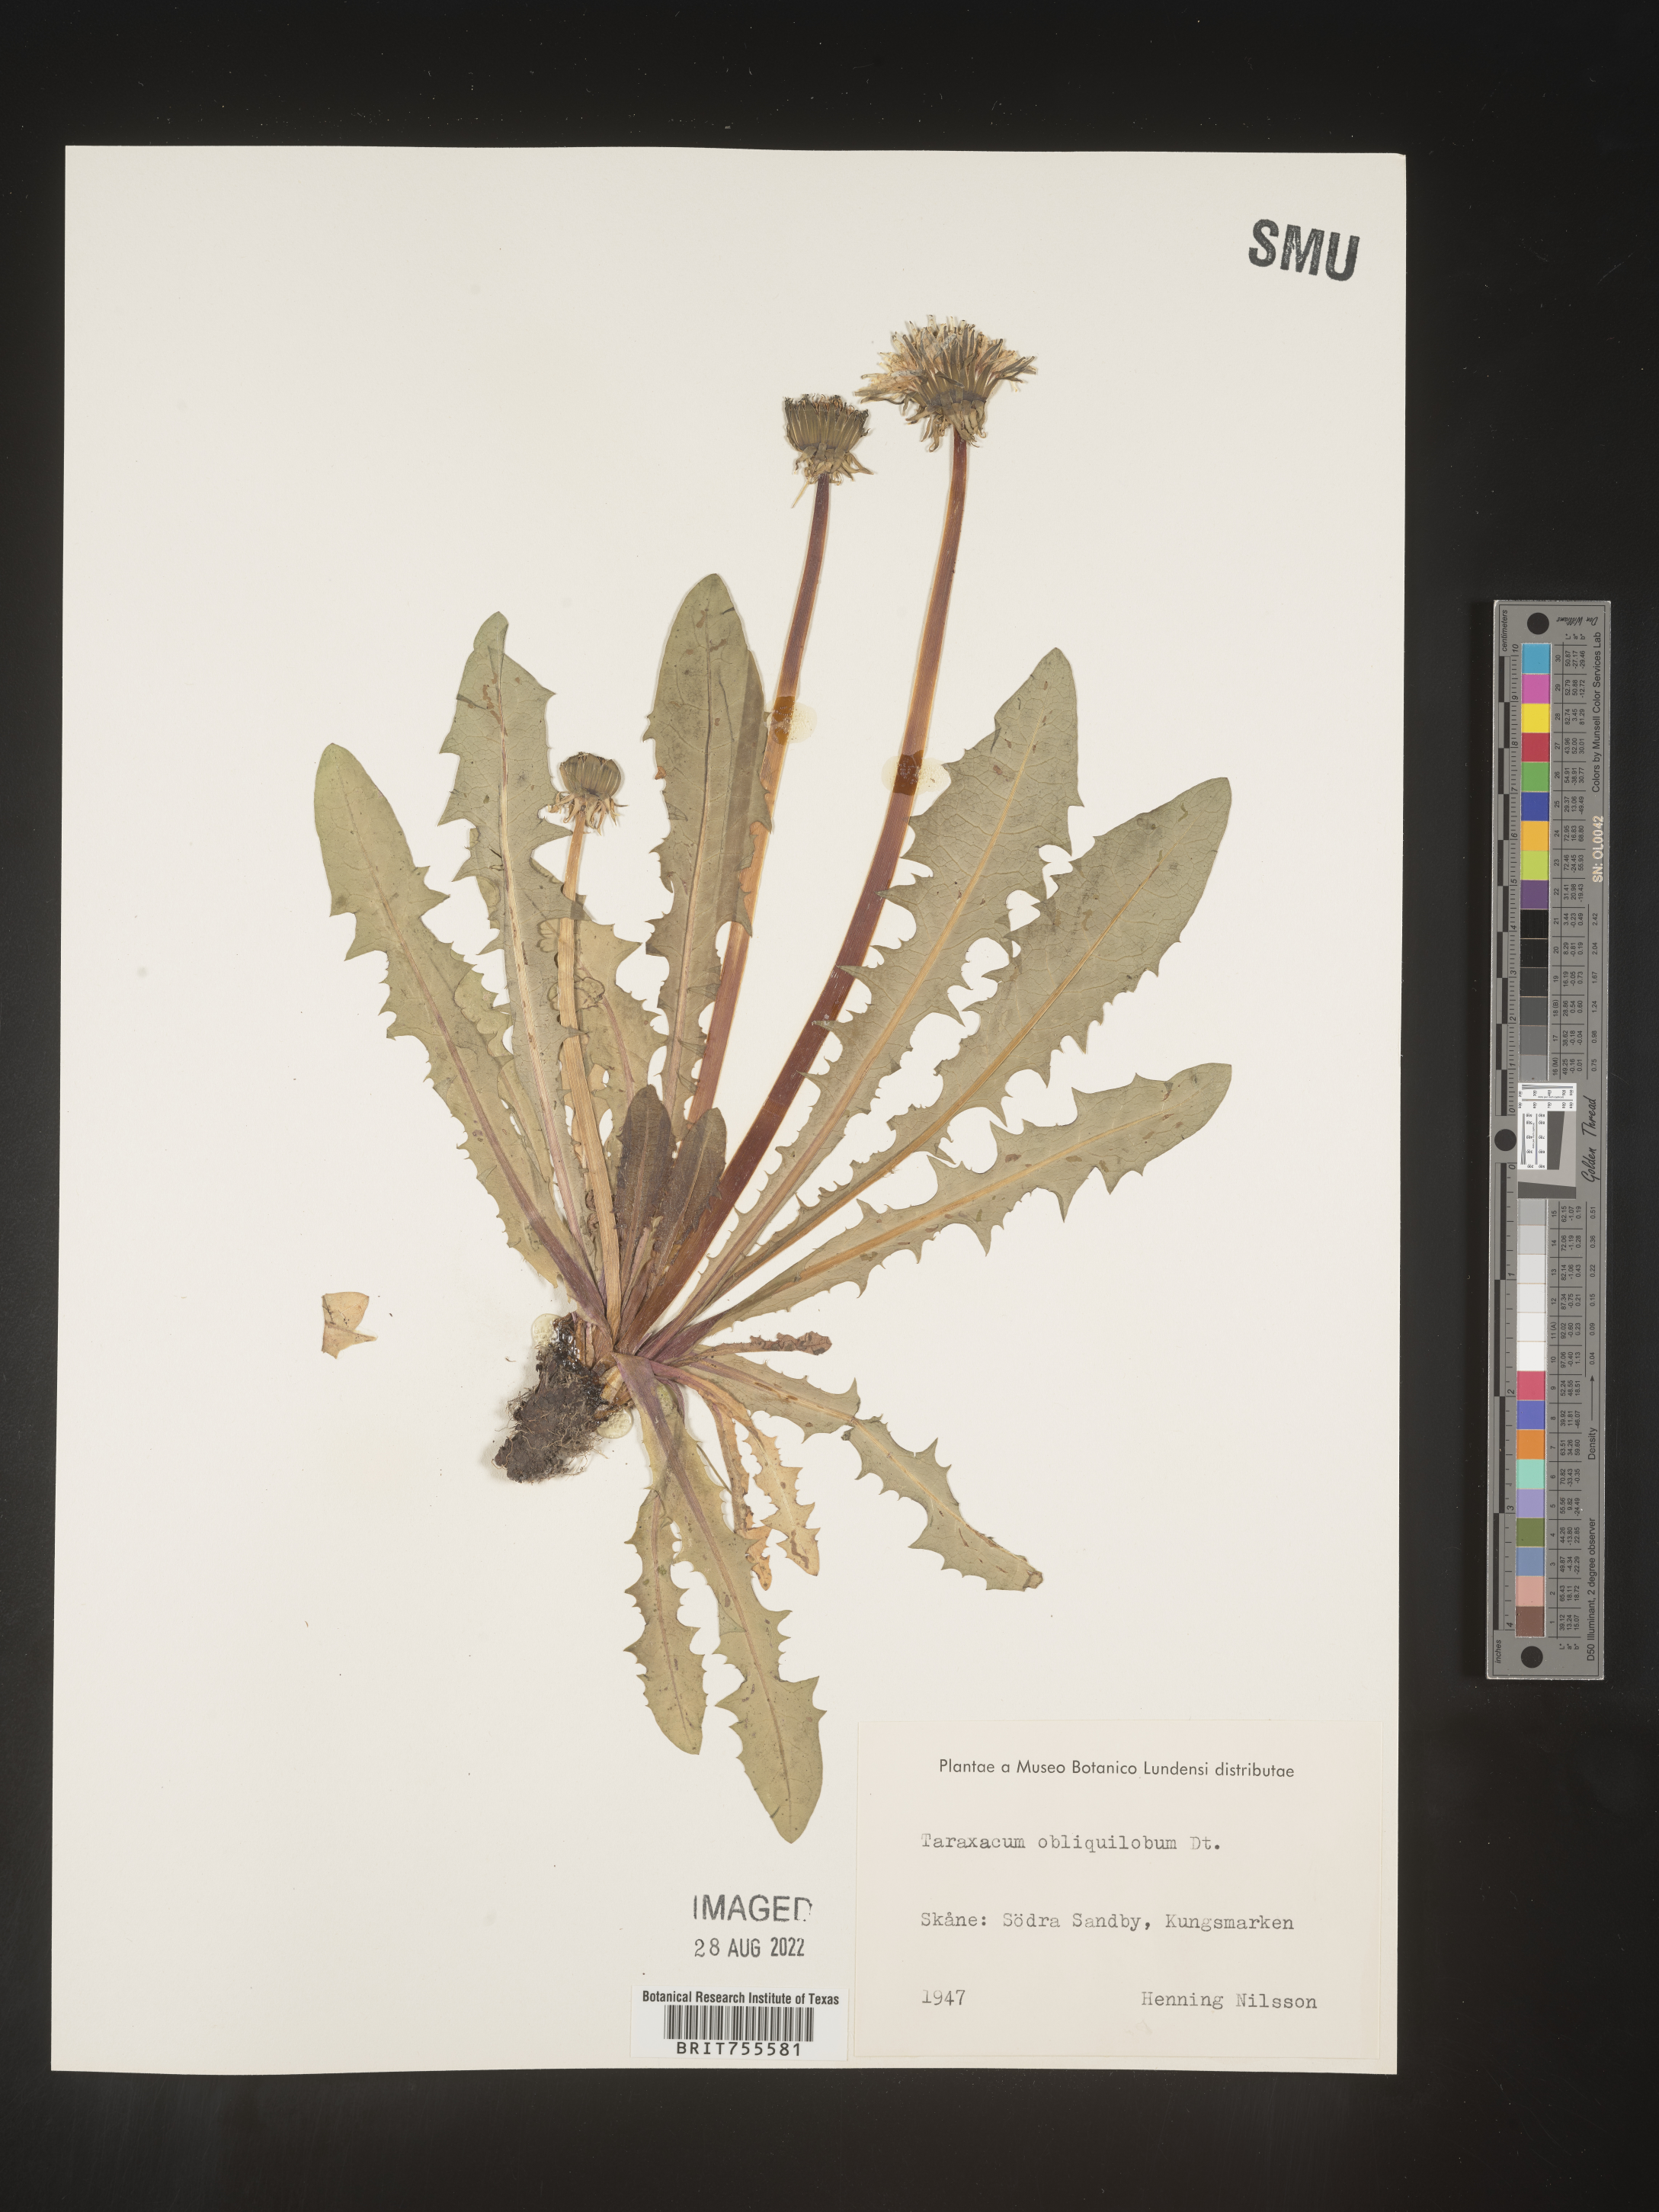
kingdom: Plantae
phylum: Tracheophyta
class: Magnoliopsida
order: Asterales
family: Asteraceae
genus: Taraxacum
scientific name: Taraxacum
